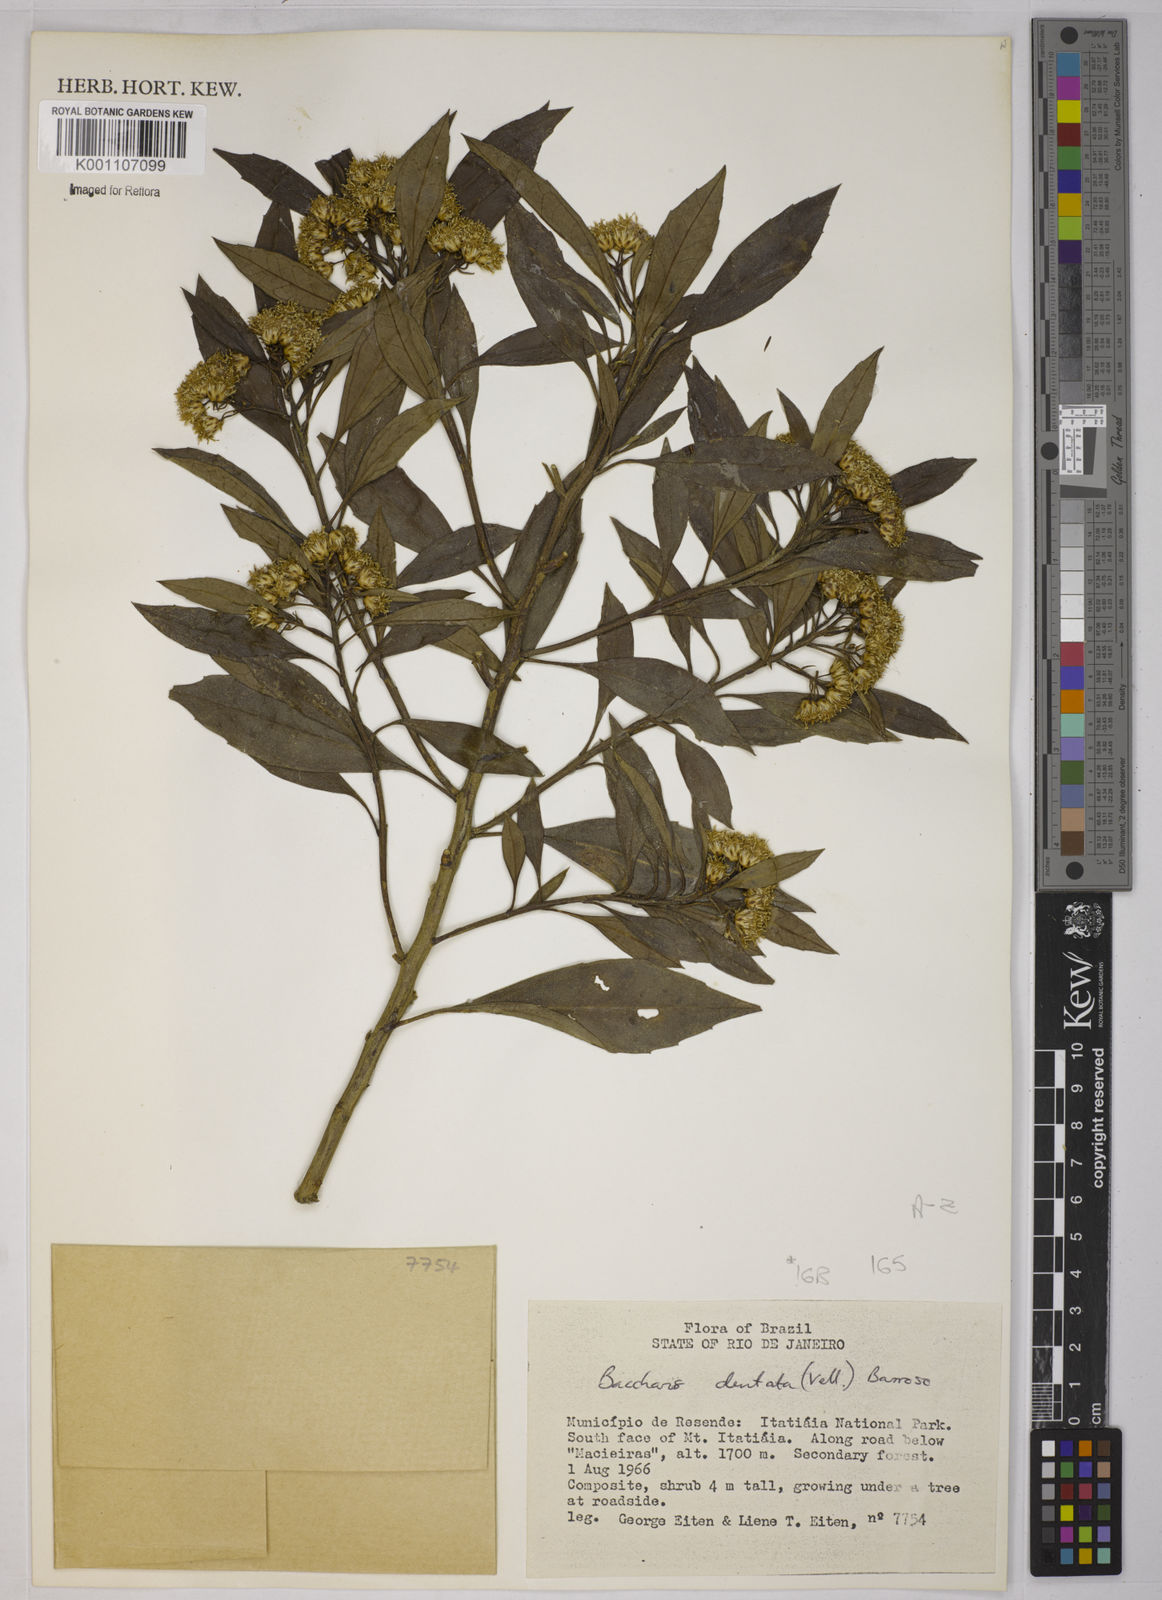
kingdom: Plantae
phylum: Tracheophyta
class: Magnoliopsida
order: Asterales
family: Asteraceae
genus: Baccharis
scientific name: Baccharis dentata
